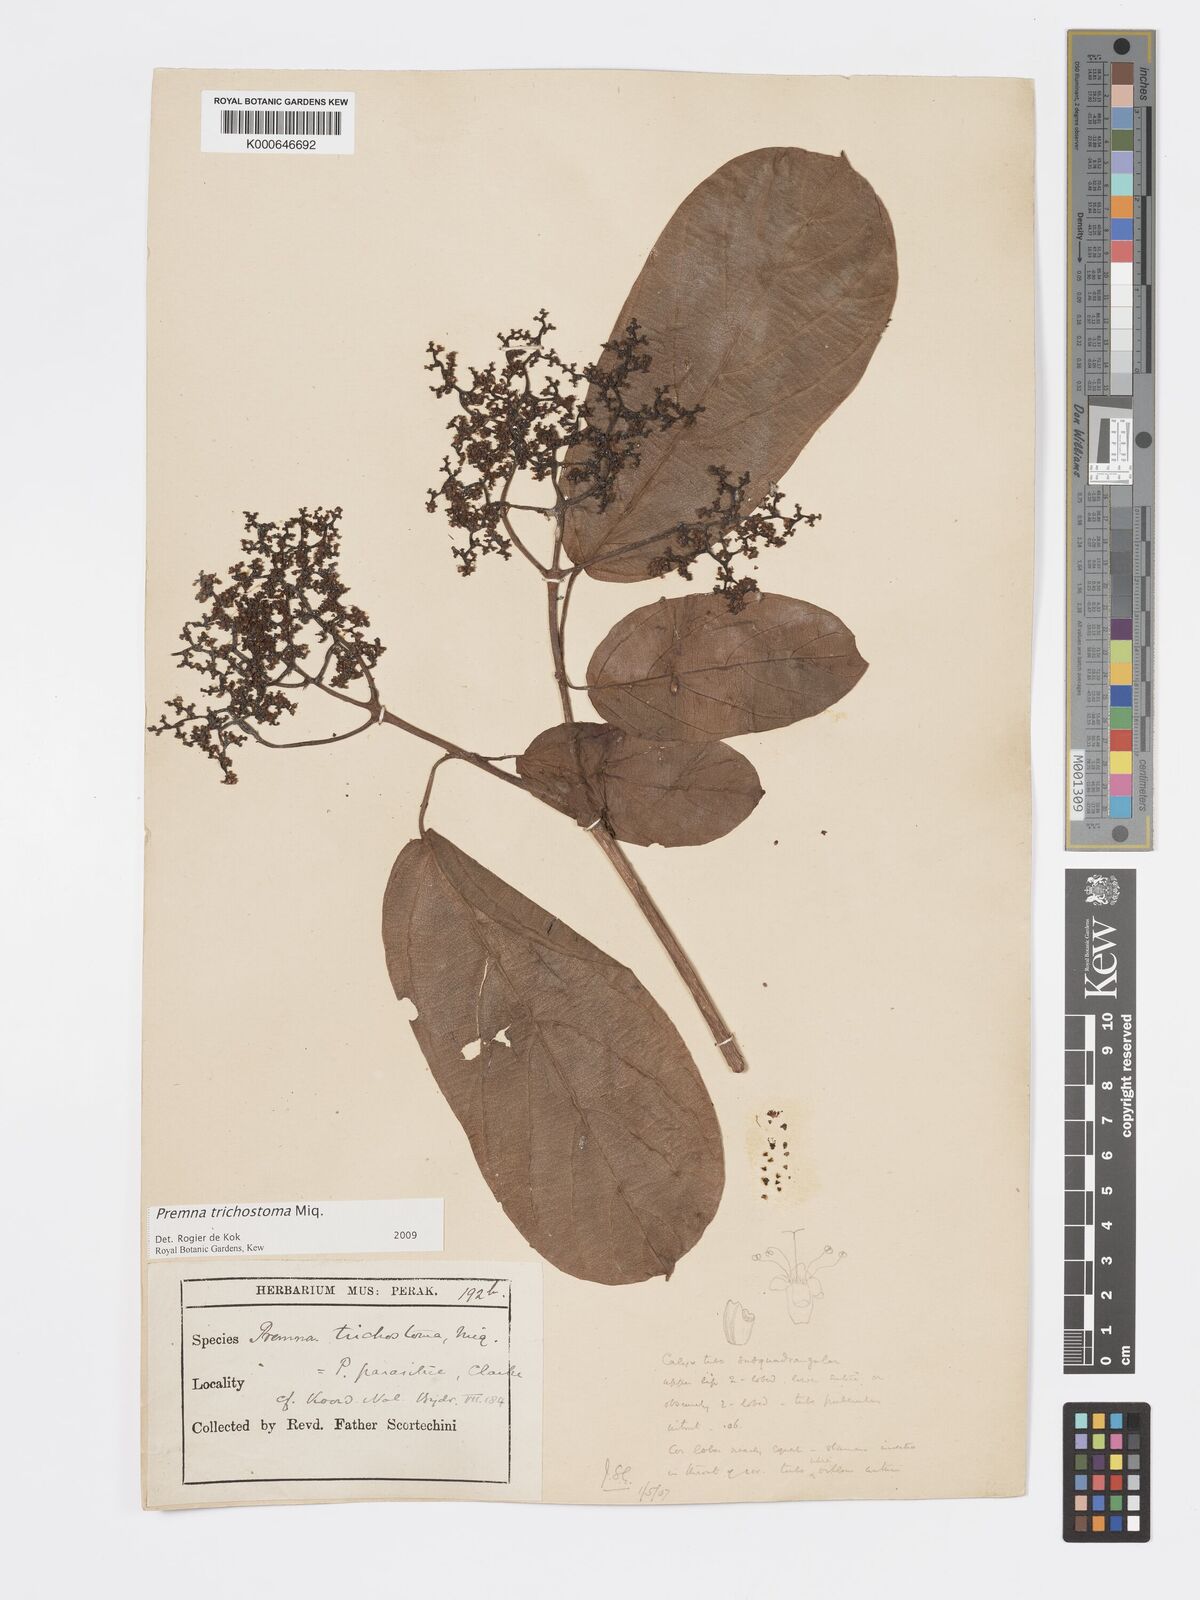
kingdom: Plantae
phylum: Tracheophyta
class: Magnoliopsida
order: Lamiales
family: Lamiaceae
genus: Premna
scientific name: Premna trichostoma
